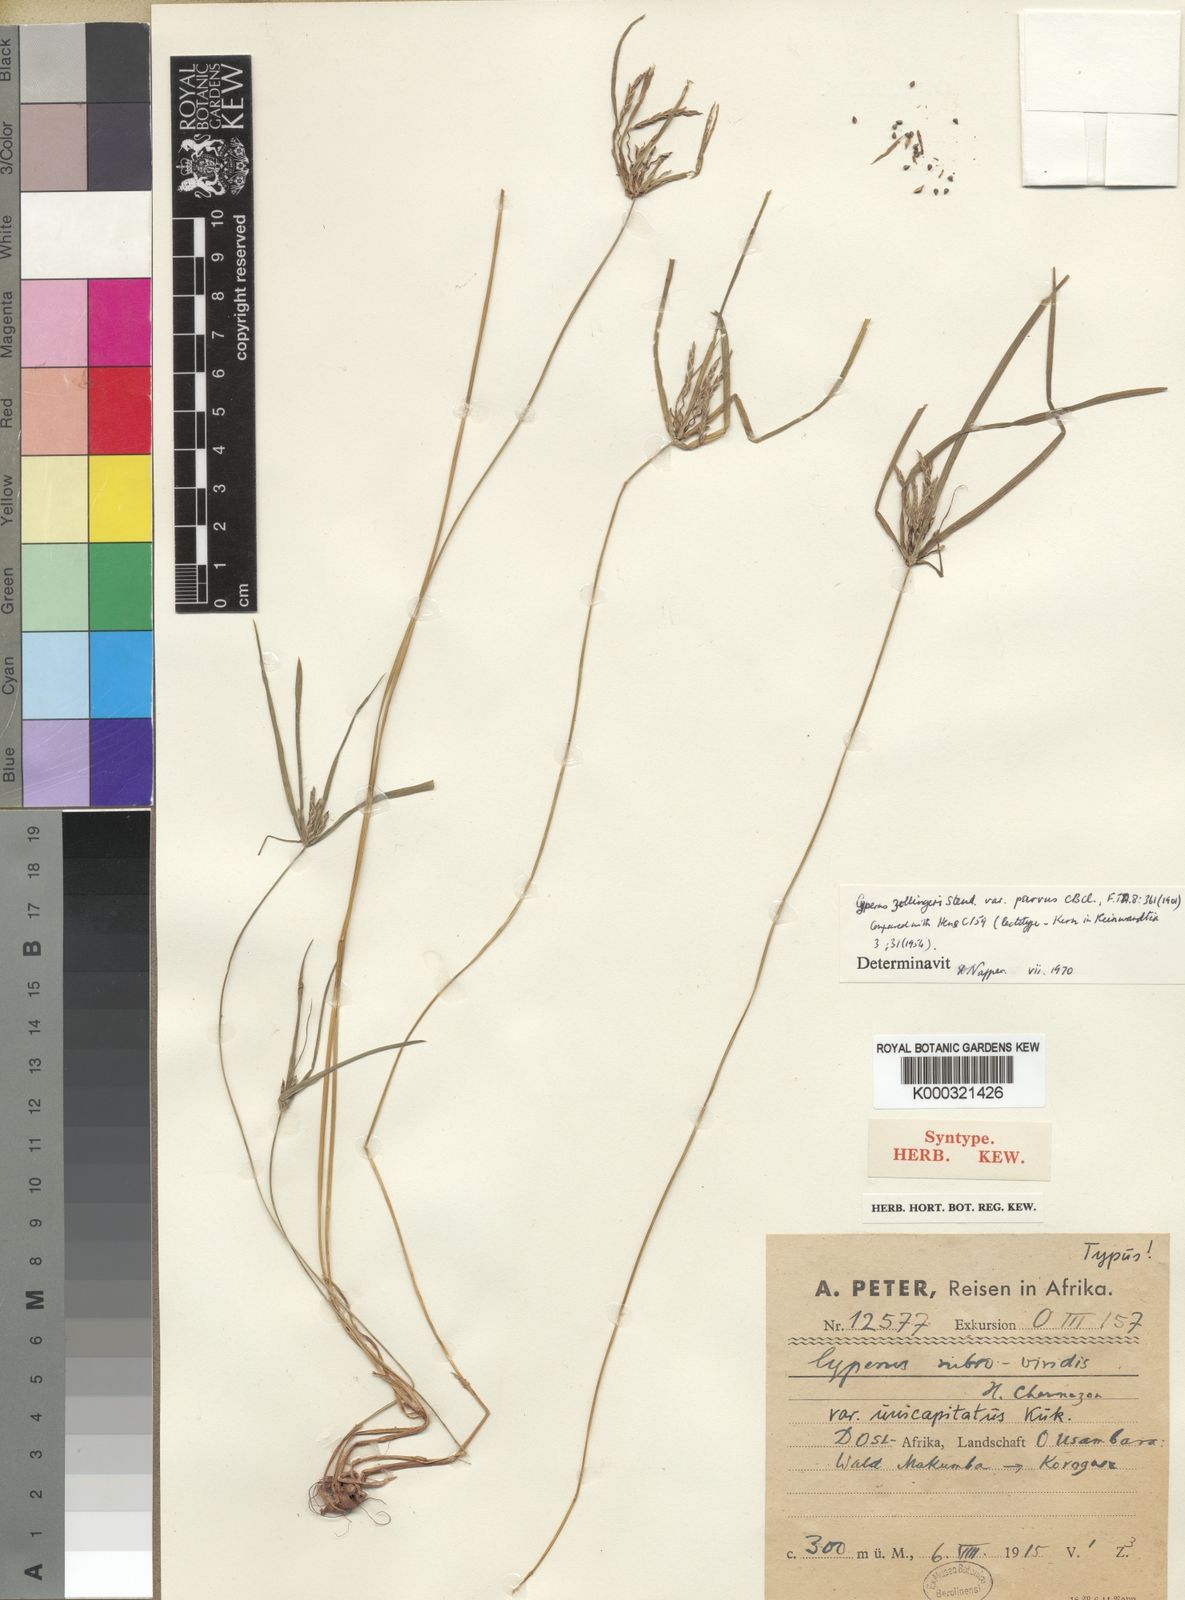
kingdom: Plantae
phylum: Tracheophyta
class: Liliopsida
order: Poales
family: Cyperaceae
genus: Cyperus
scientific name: Cyperus zollingeri
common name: Roadside flatsedge
